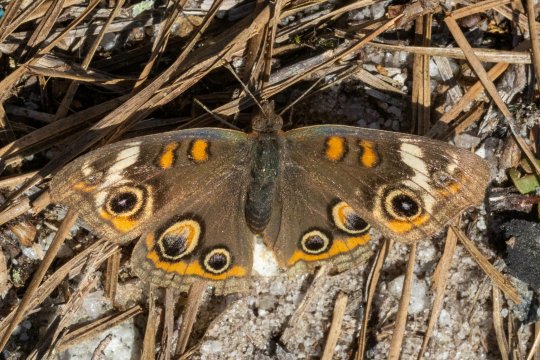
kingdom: Animalia
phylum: Arthropoda
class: Insecta
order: Lepidoptera
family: Nymphalidae
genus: Junonia
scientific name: Junonia coenia
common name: Common Buckeye
